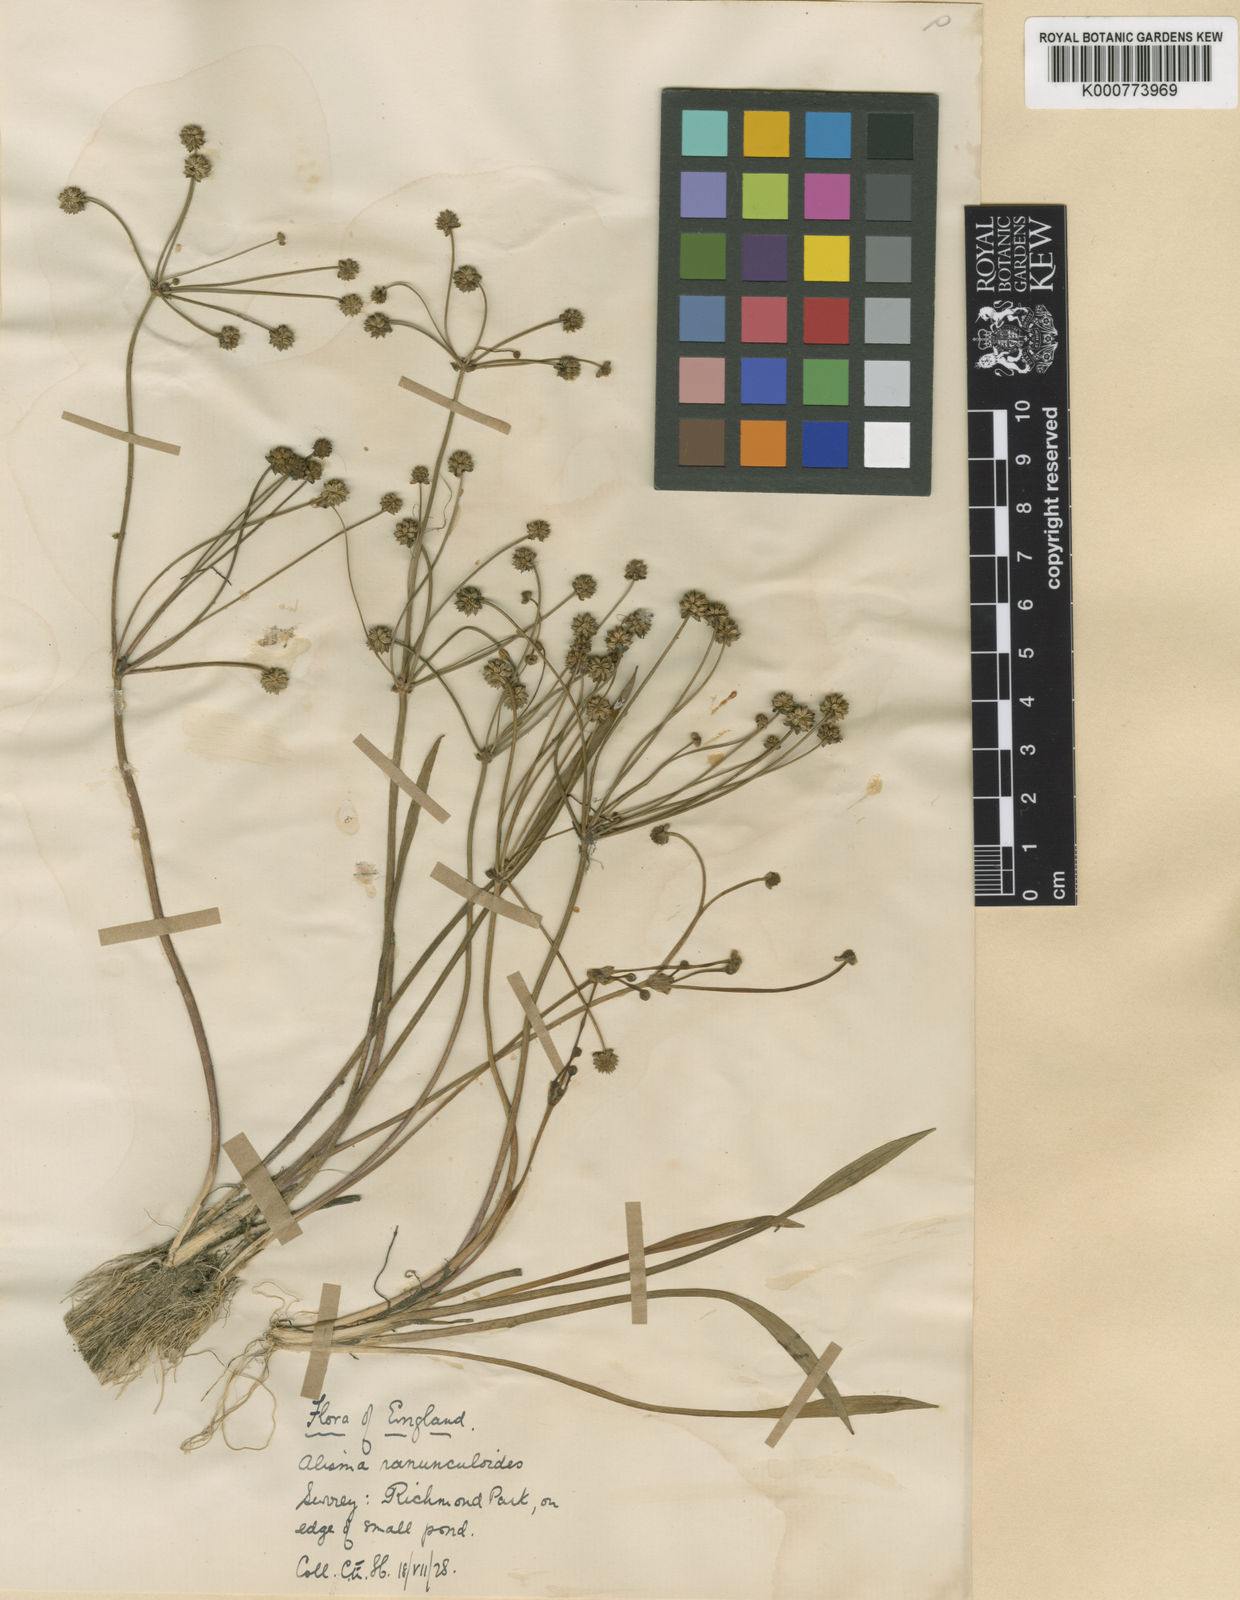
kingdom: Plantae
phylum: Tracheophyta
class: Liliopsida
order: Alismatales
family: Alismataceae
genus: Baldellia
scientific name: Baldellia ranunculoides
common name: Lesser water-plantain
